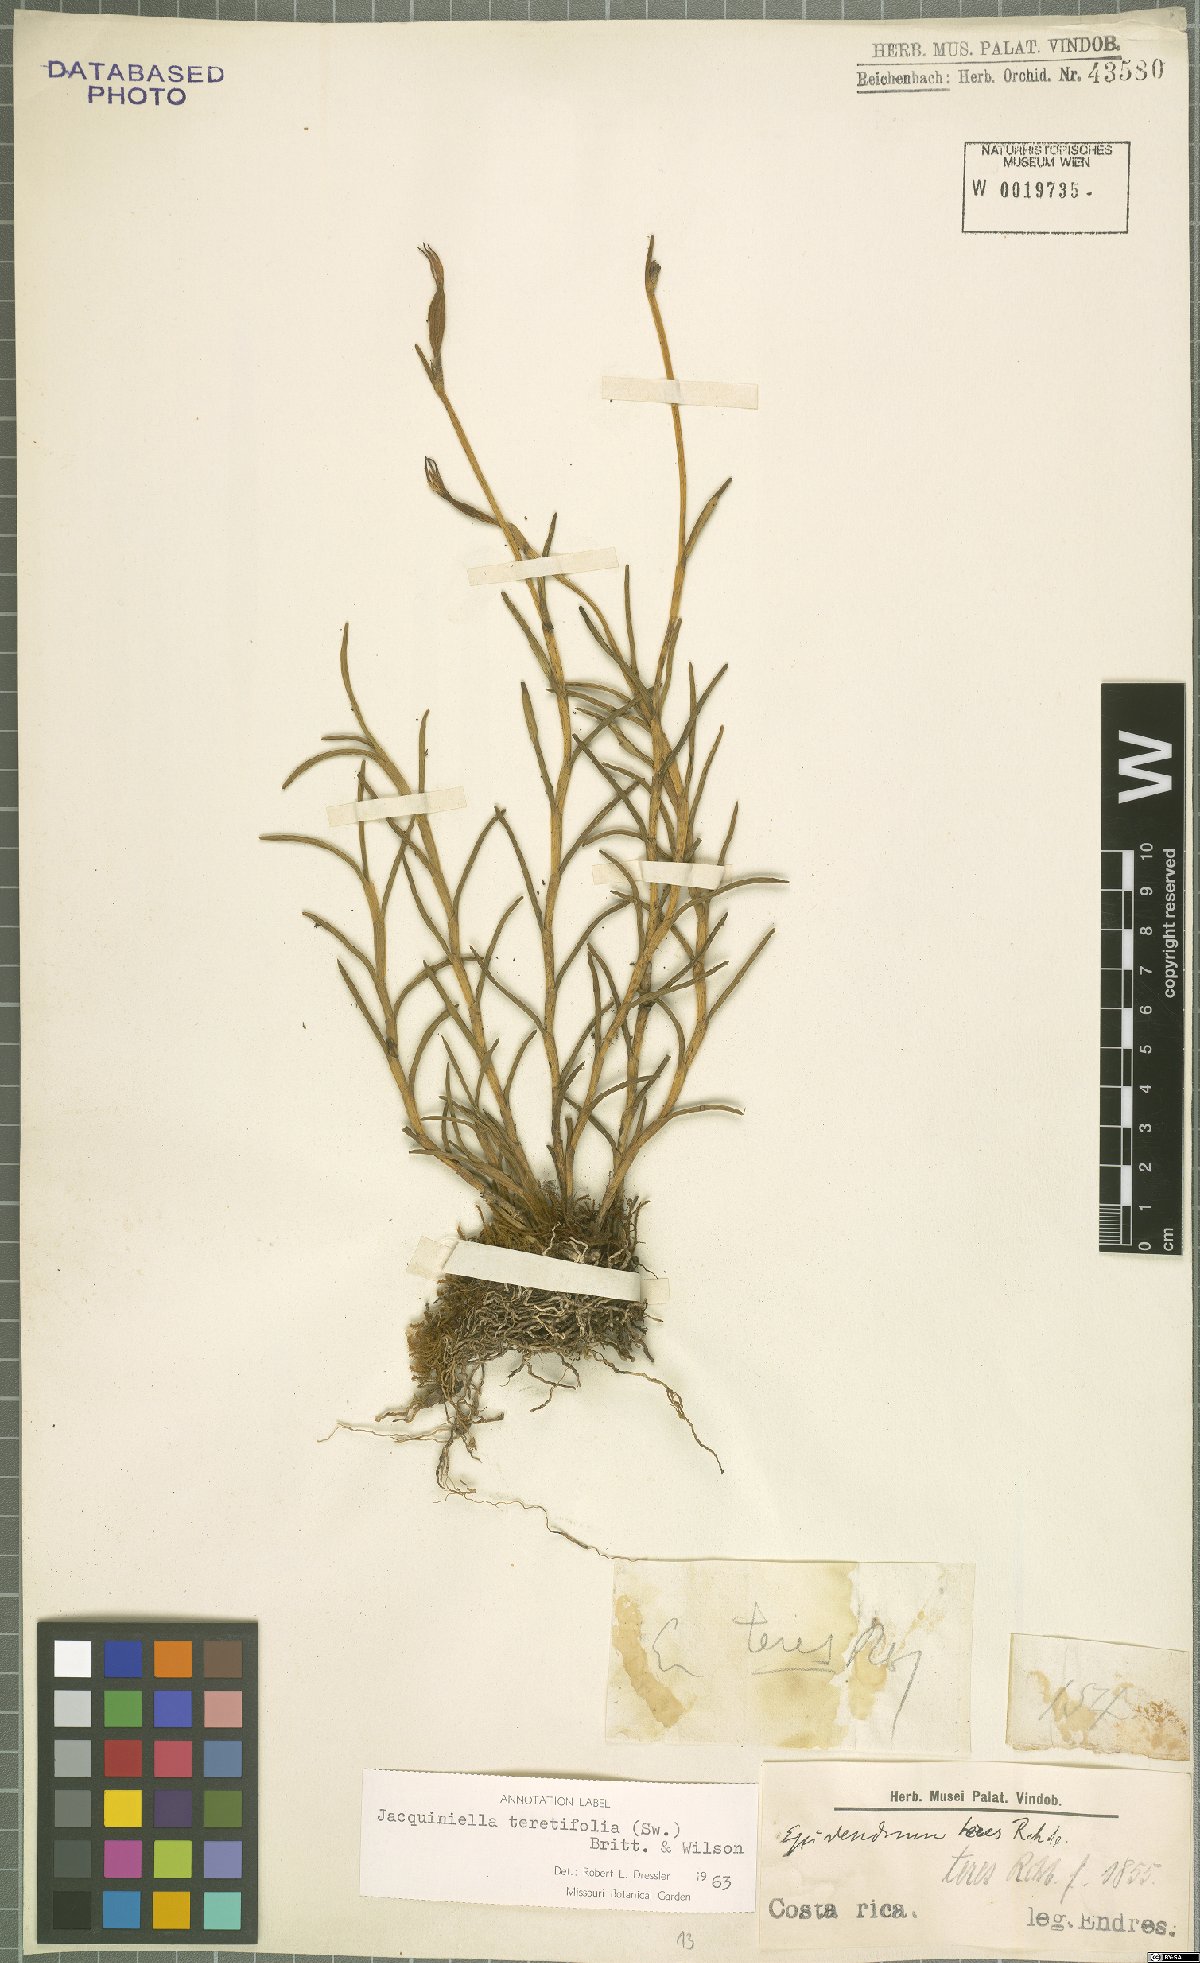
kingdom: Plantae
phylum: Tracheophyta
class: Liliopsida
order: Asparagales
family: Orchidaceae
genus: Jacquiniella
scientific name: Jacquiniella teretifolia
